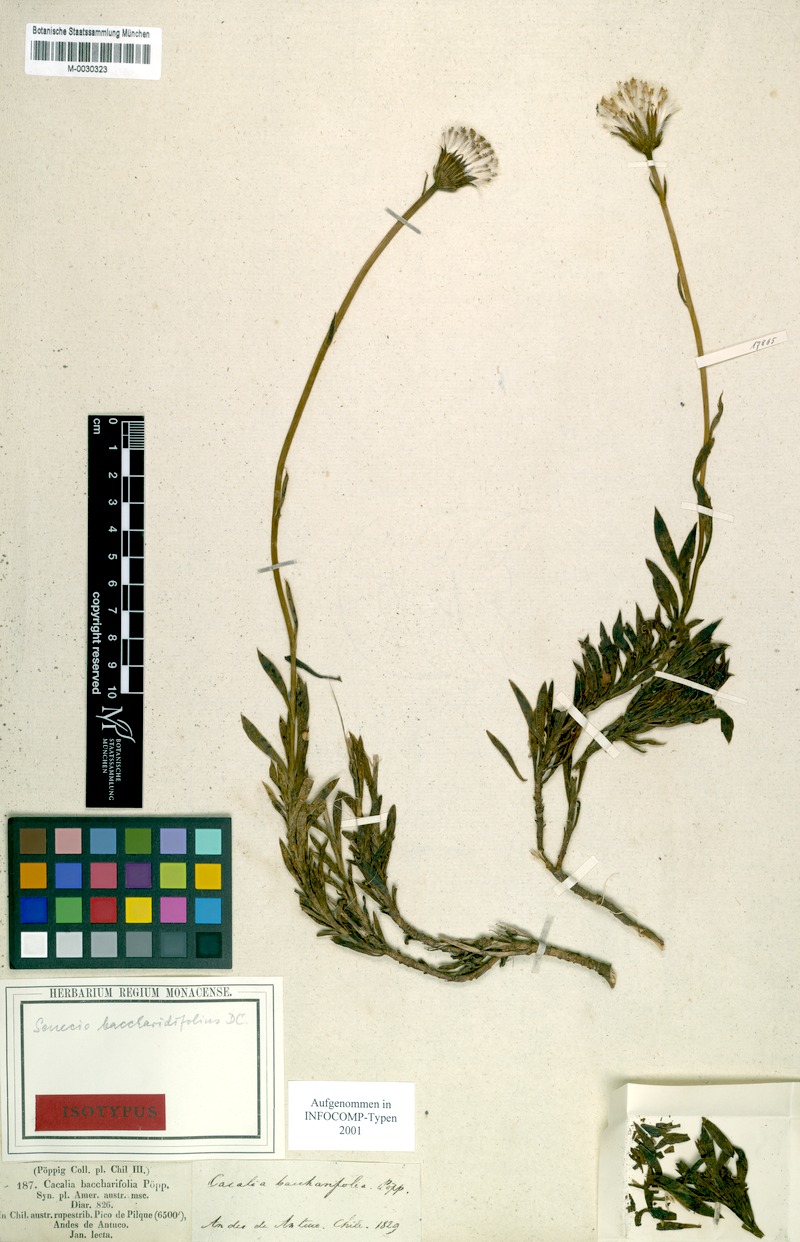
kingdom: Plantae
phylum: Tracheophyta
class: Magnoliopsida
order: Asterales
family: Asteraceae
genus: Senecio
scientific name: Senecio baccharidifolius
